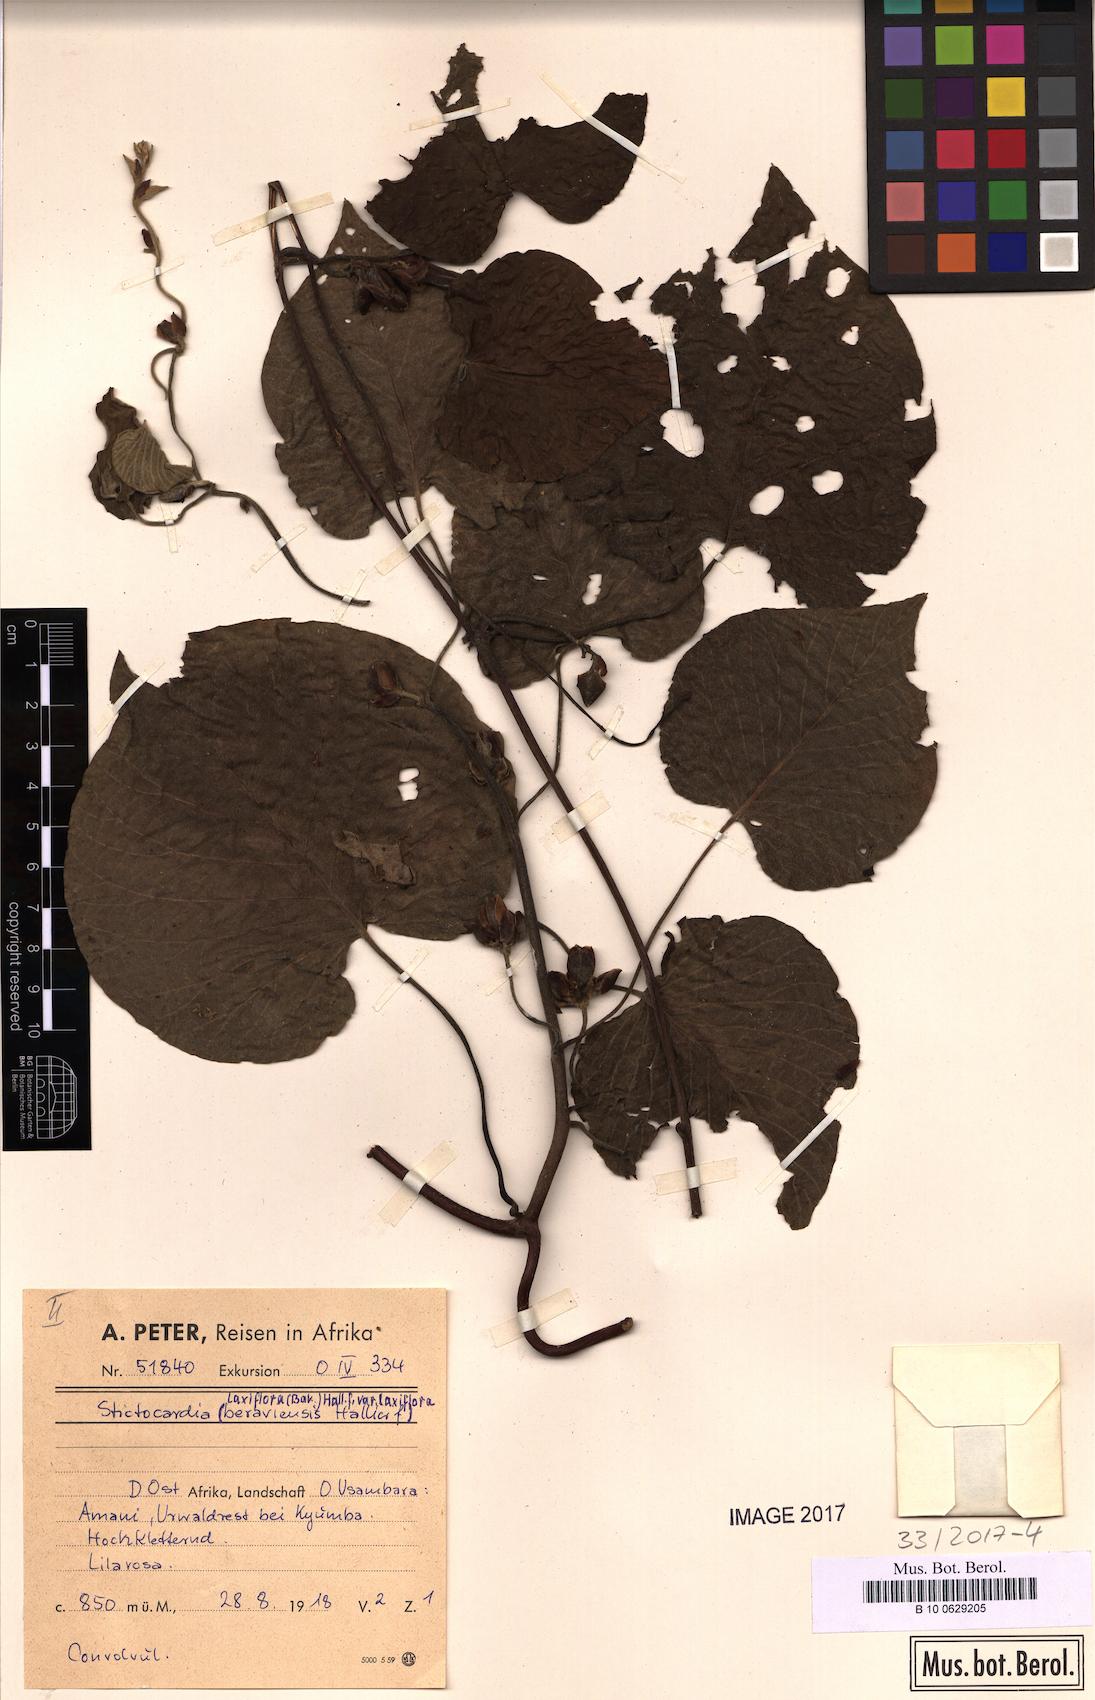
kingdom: Plantae
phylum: Tracheophyta
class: Magnoliopsida
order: Solanales
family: Convolvulaceae
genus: Stictocardia
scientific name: Stictocardia laxiflora
